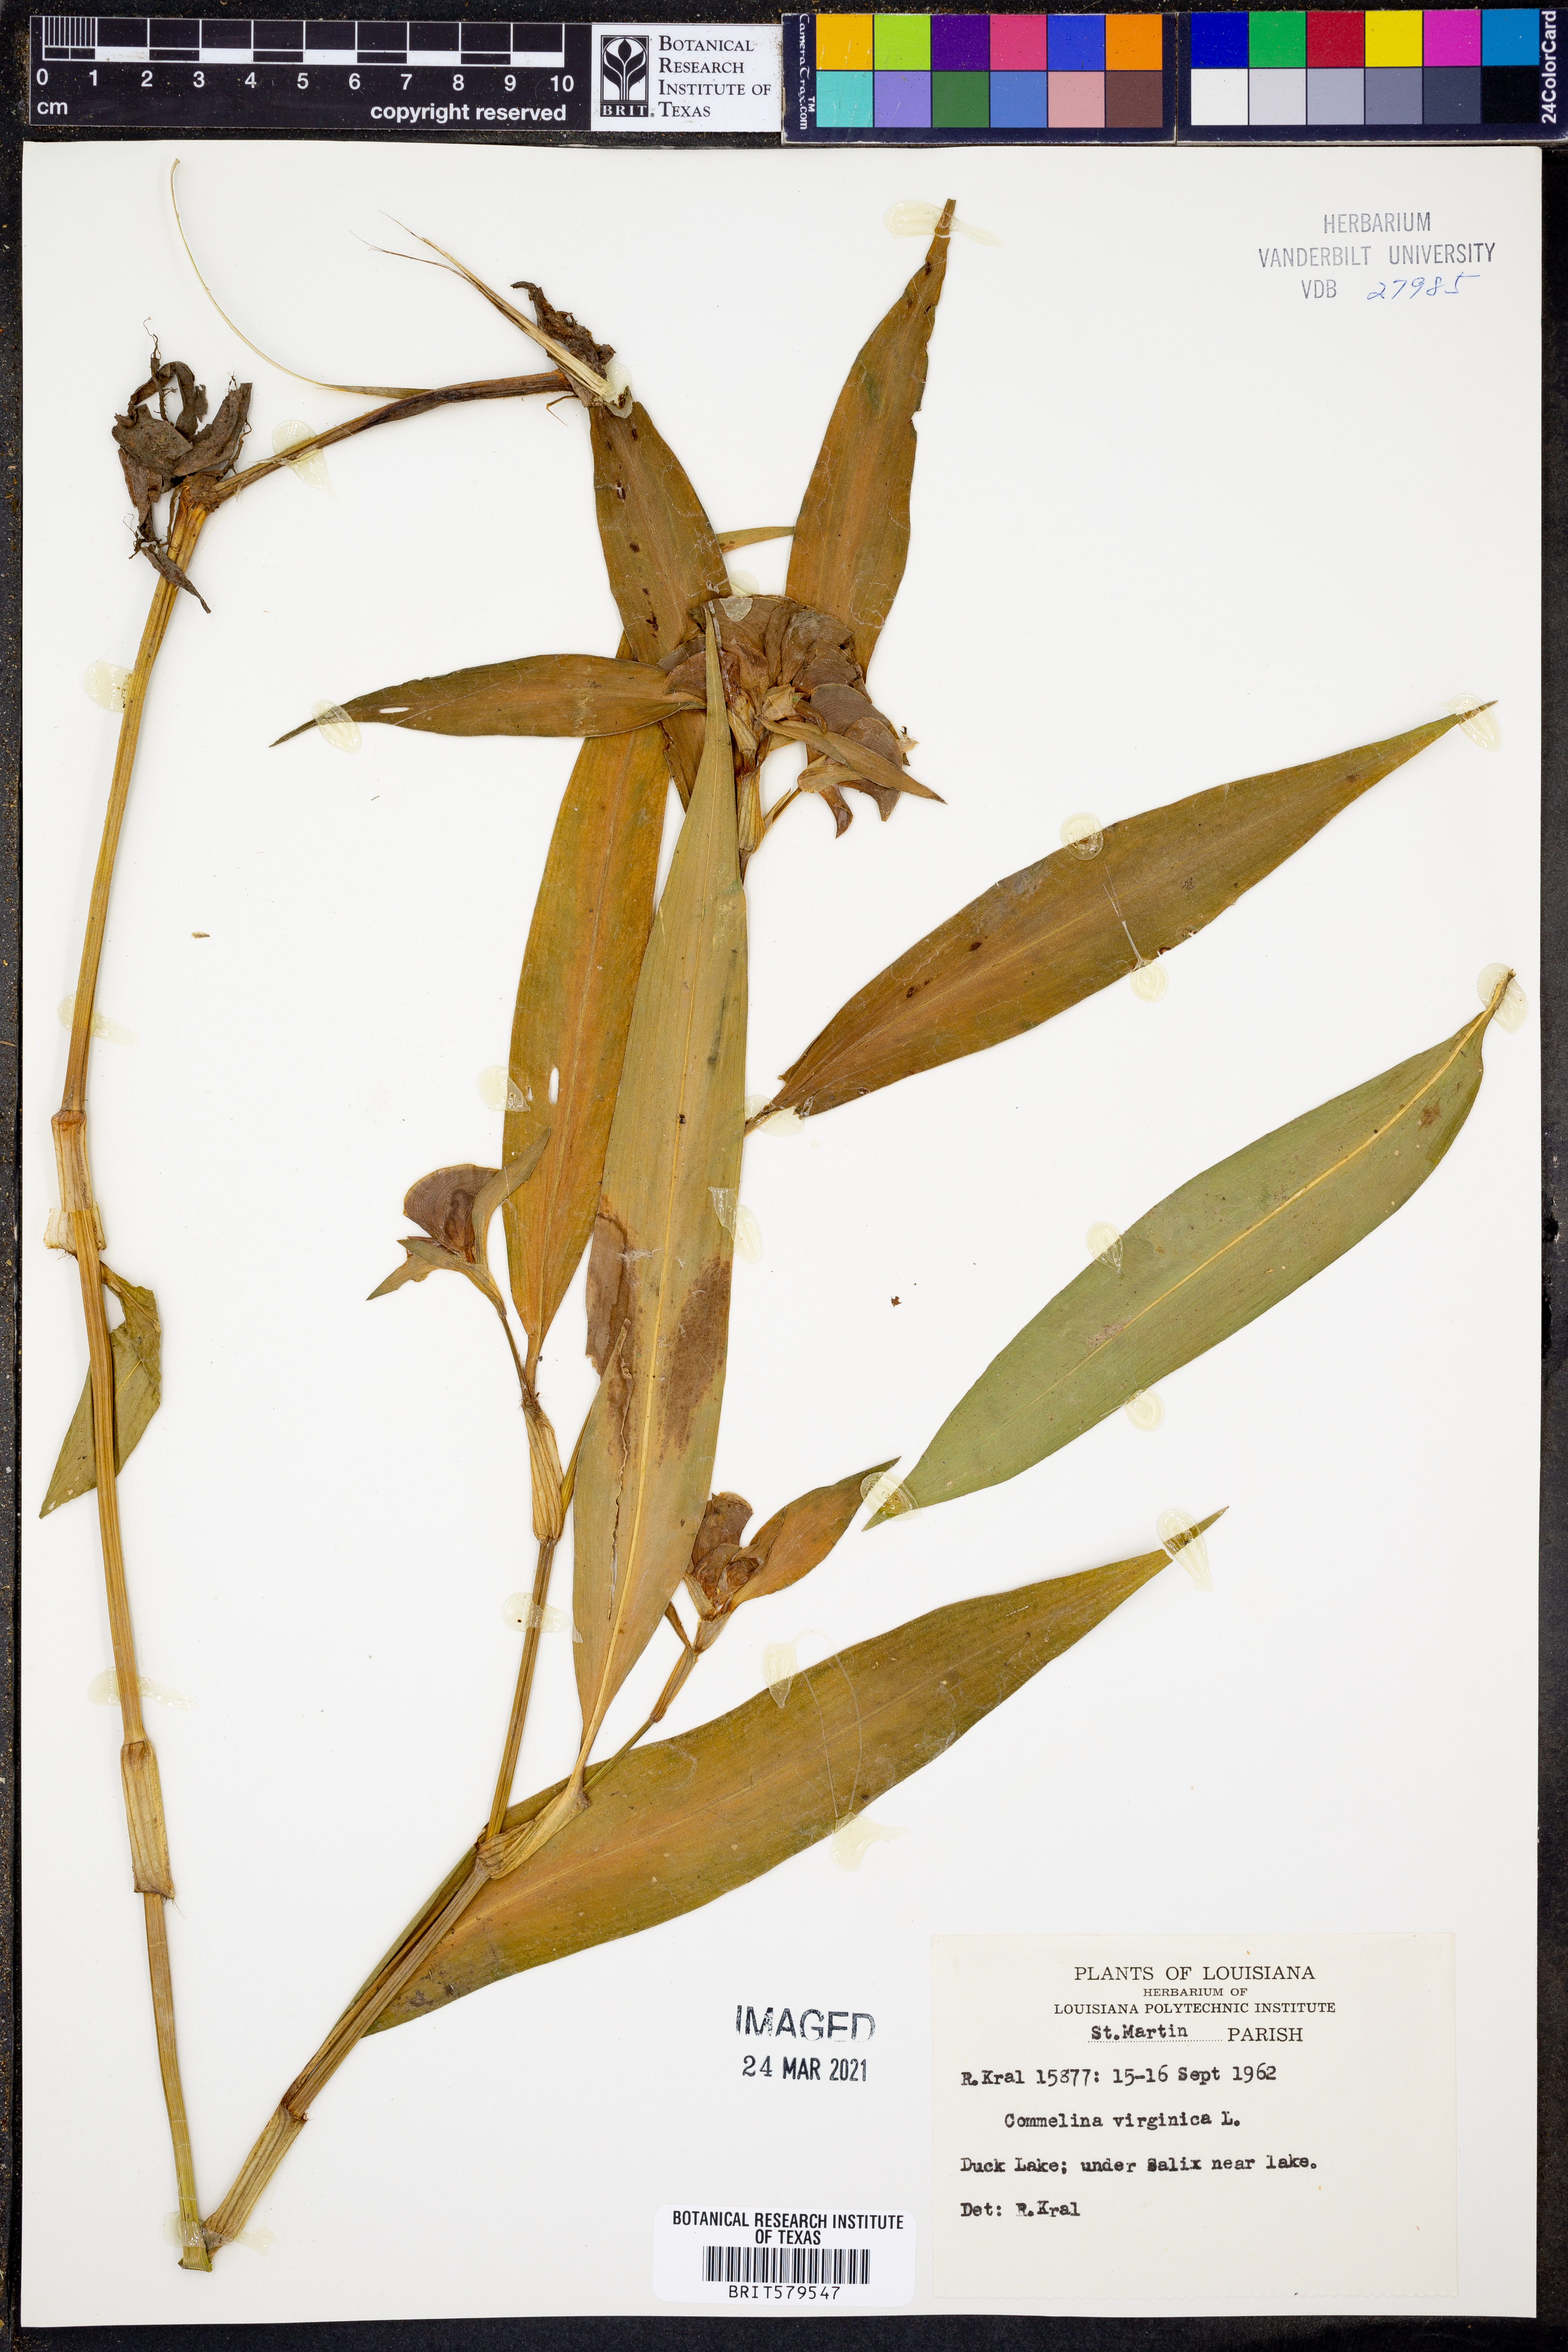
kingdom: Plantae
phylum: Tracheophyta
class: Liliopsida
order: Commelinales
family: Commelinaceae
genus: Commelina
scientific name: Commelina virginica
